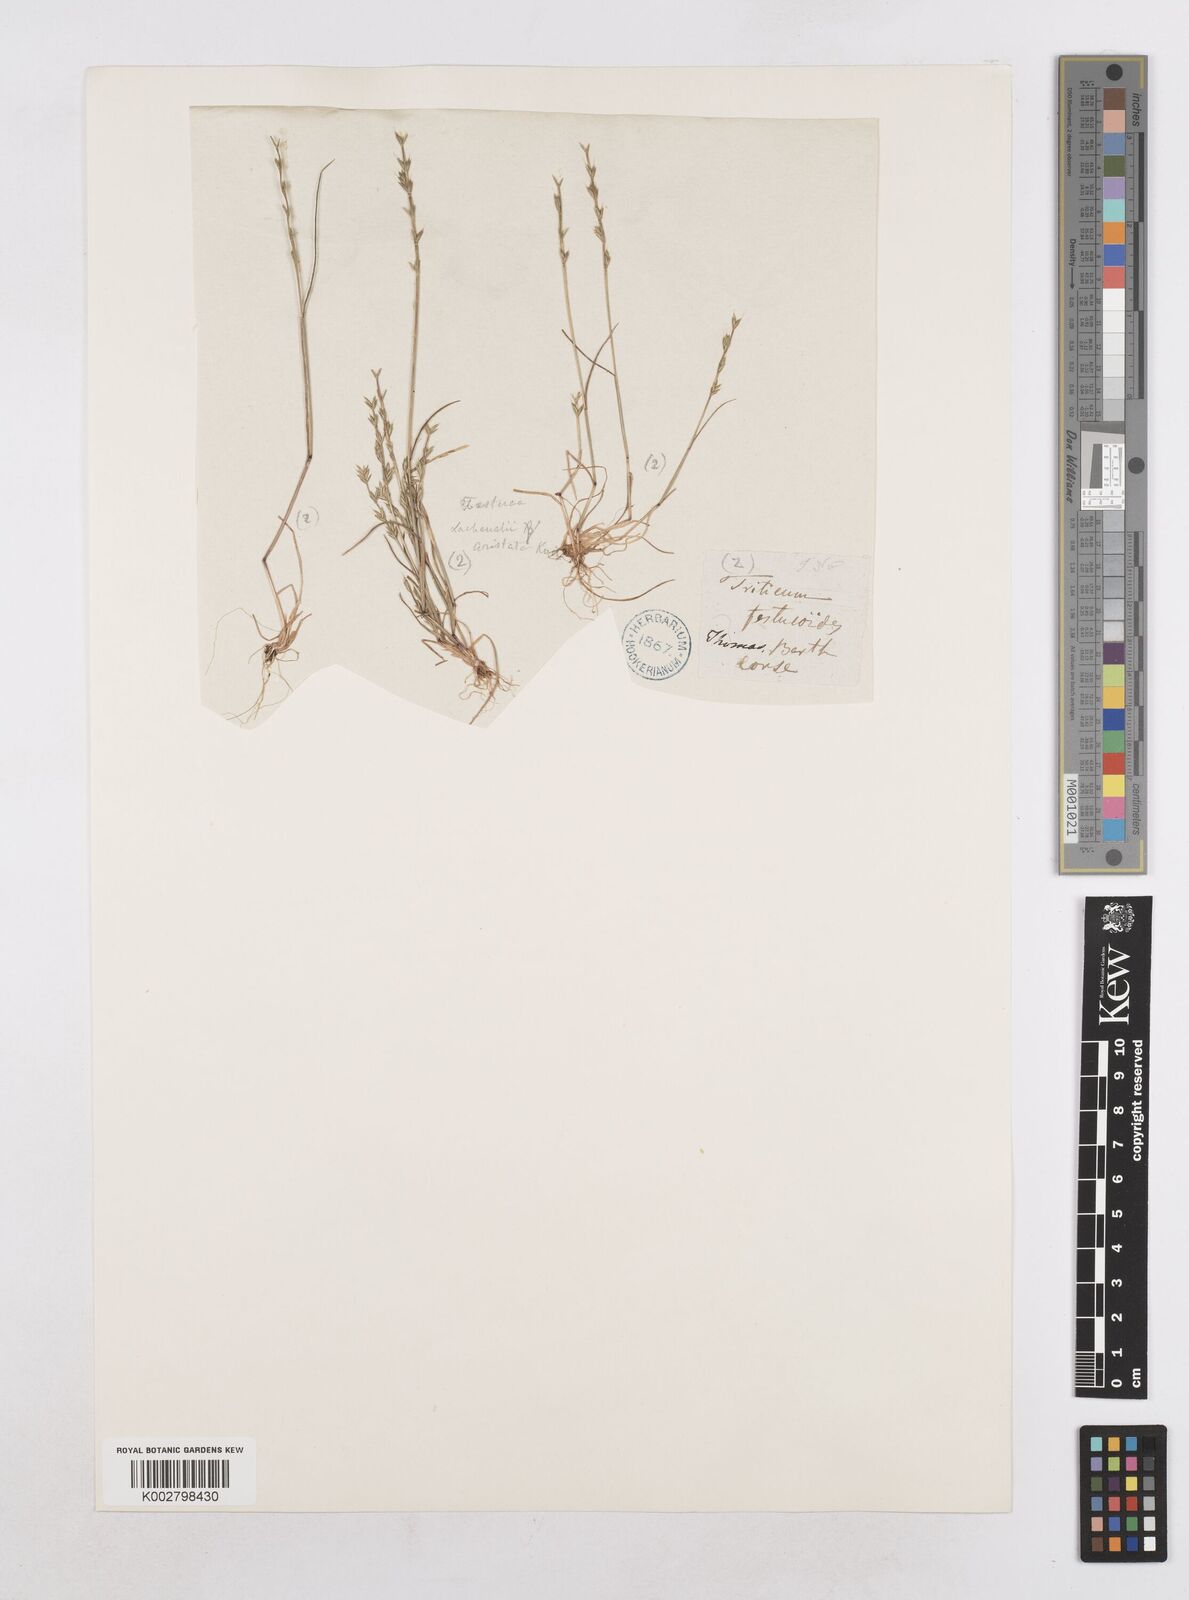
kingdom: Plantae
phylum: Tracheophyta
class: Liliopsida
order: Poales
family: Poaceae
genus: Festuca
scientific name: Festuca lachenalii
